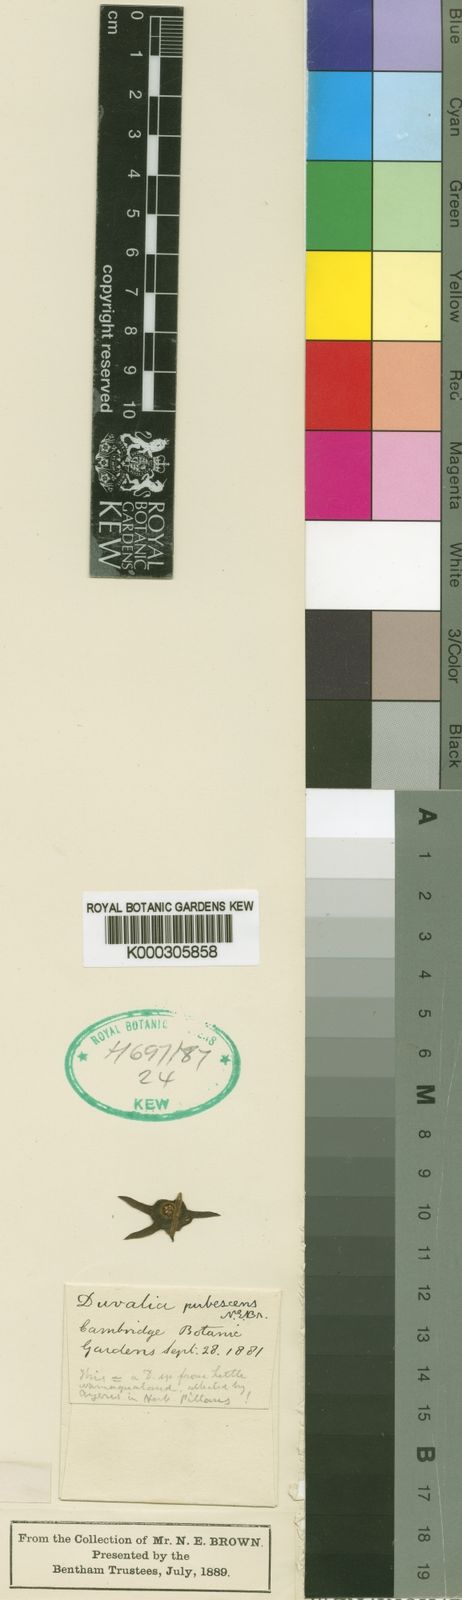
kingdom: Plantae
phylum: Tracheophyta
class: Magnoliopsida
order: Gentianales
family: Apocynaceae
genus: Ceropegia
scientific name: Ceropegia caespitosa
